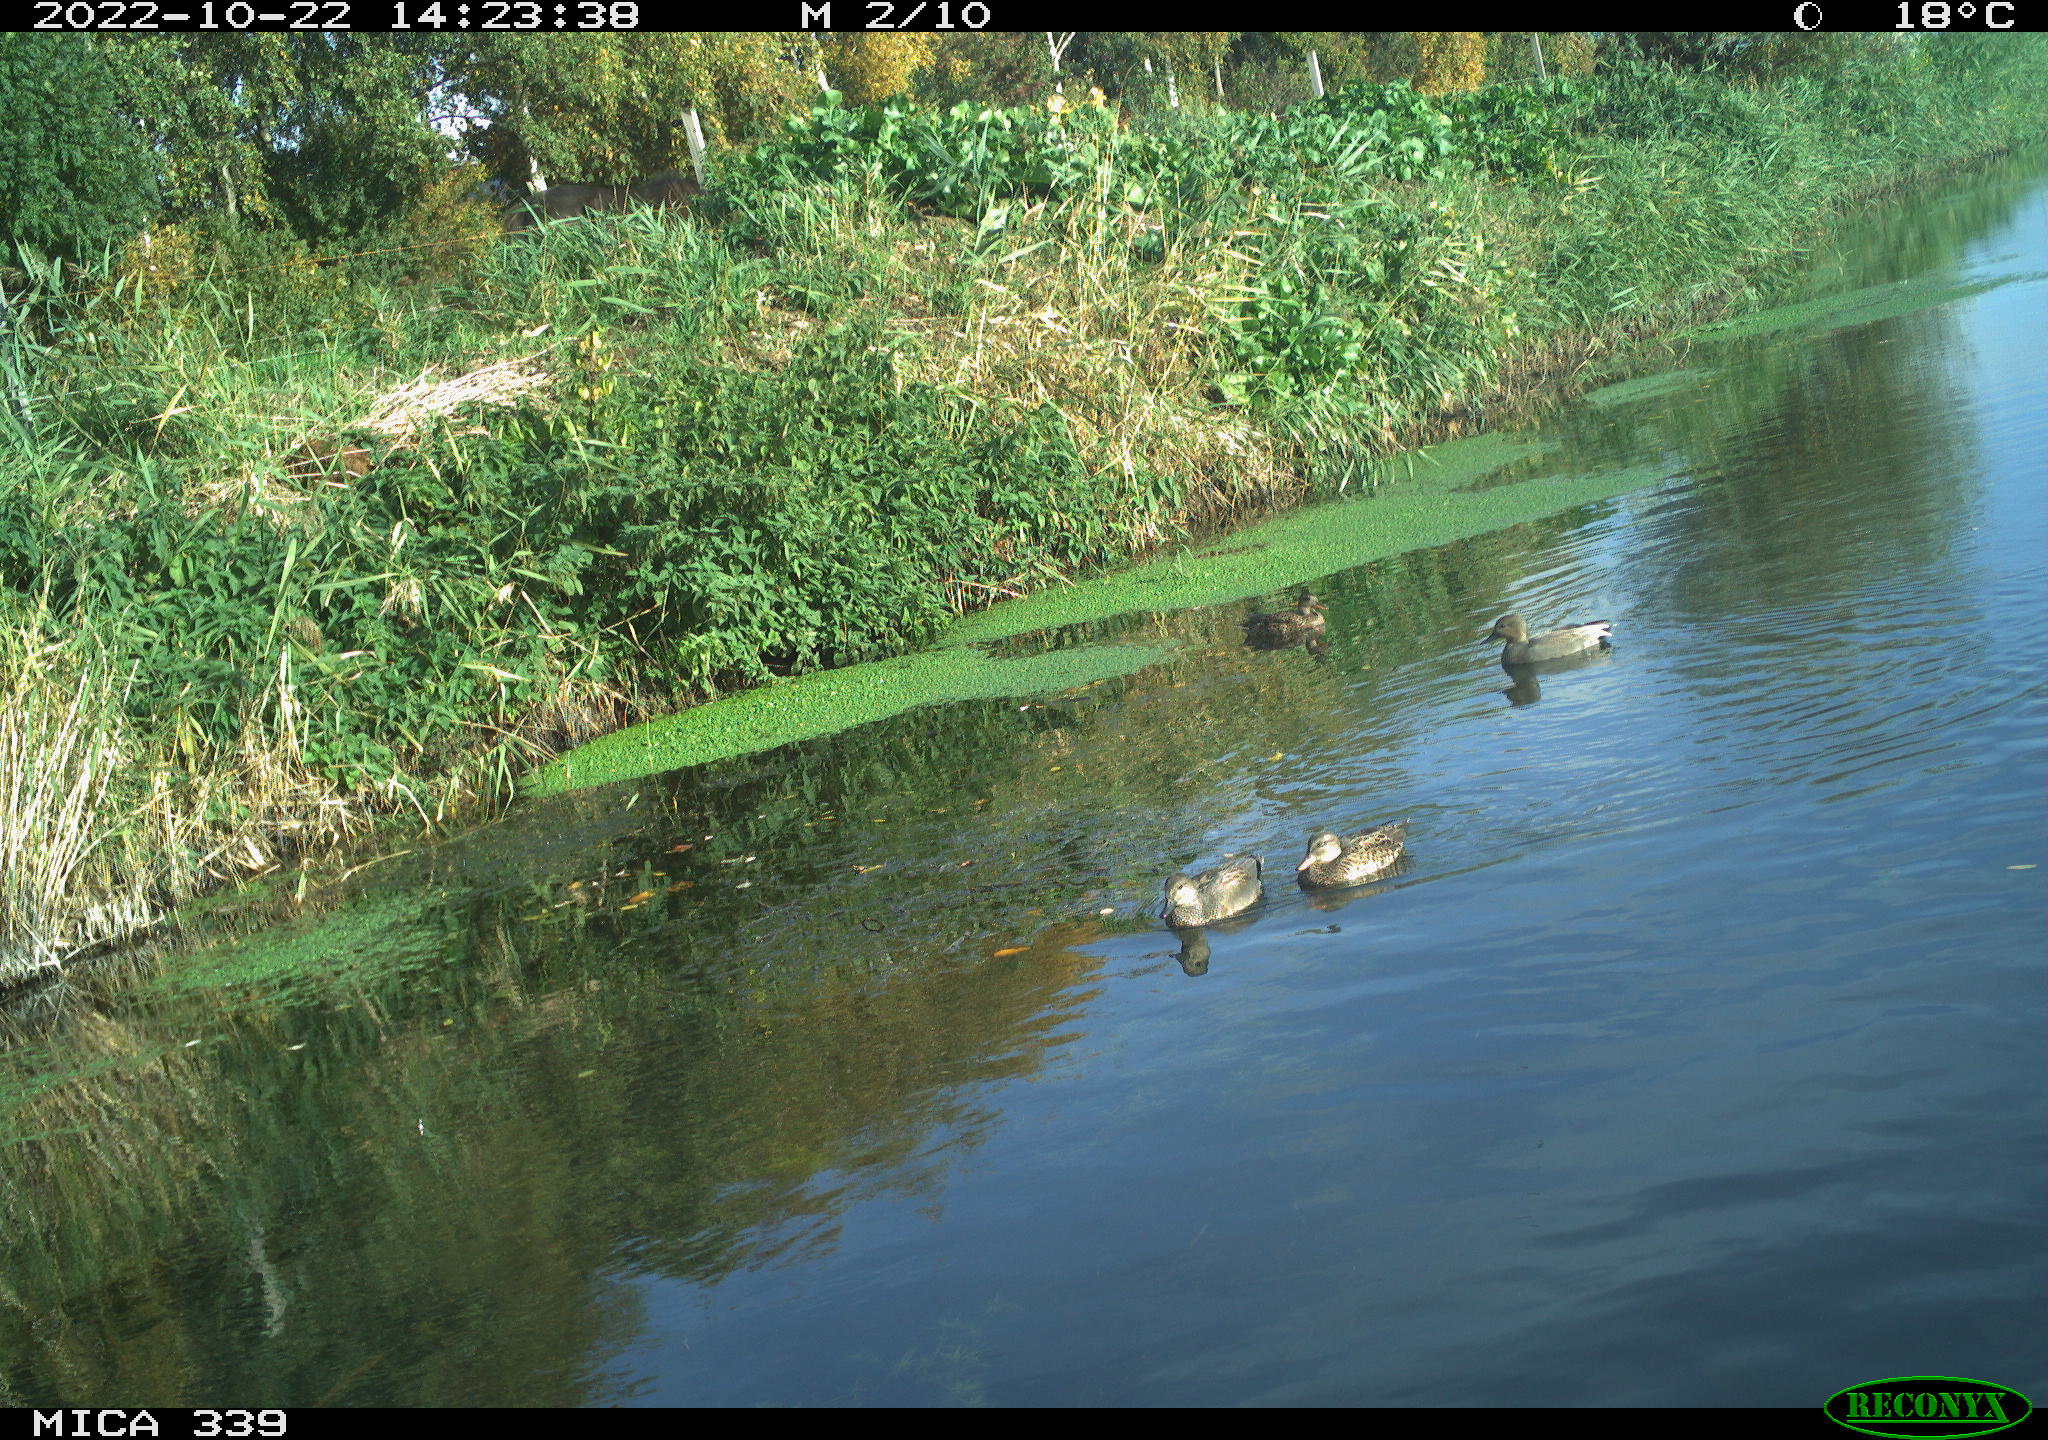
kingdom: Animalia
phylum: Chordata
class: Aves
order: Anseriformes
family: Anatidae
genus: Mareca
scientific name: Mareca strepera
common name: Gadwall
